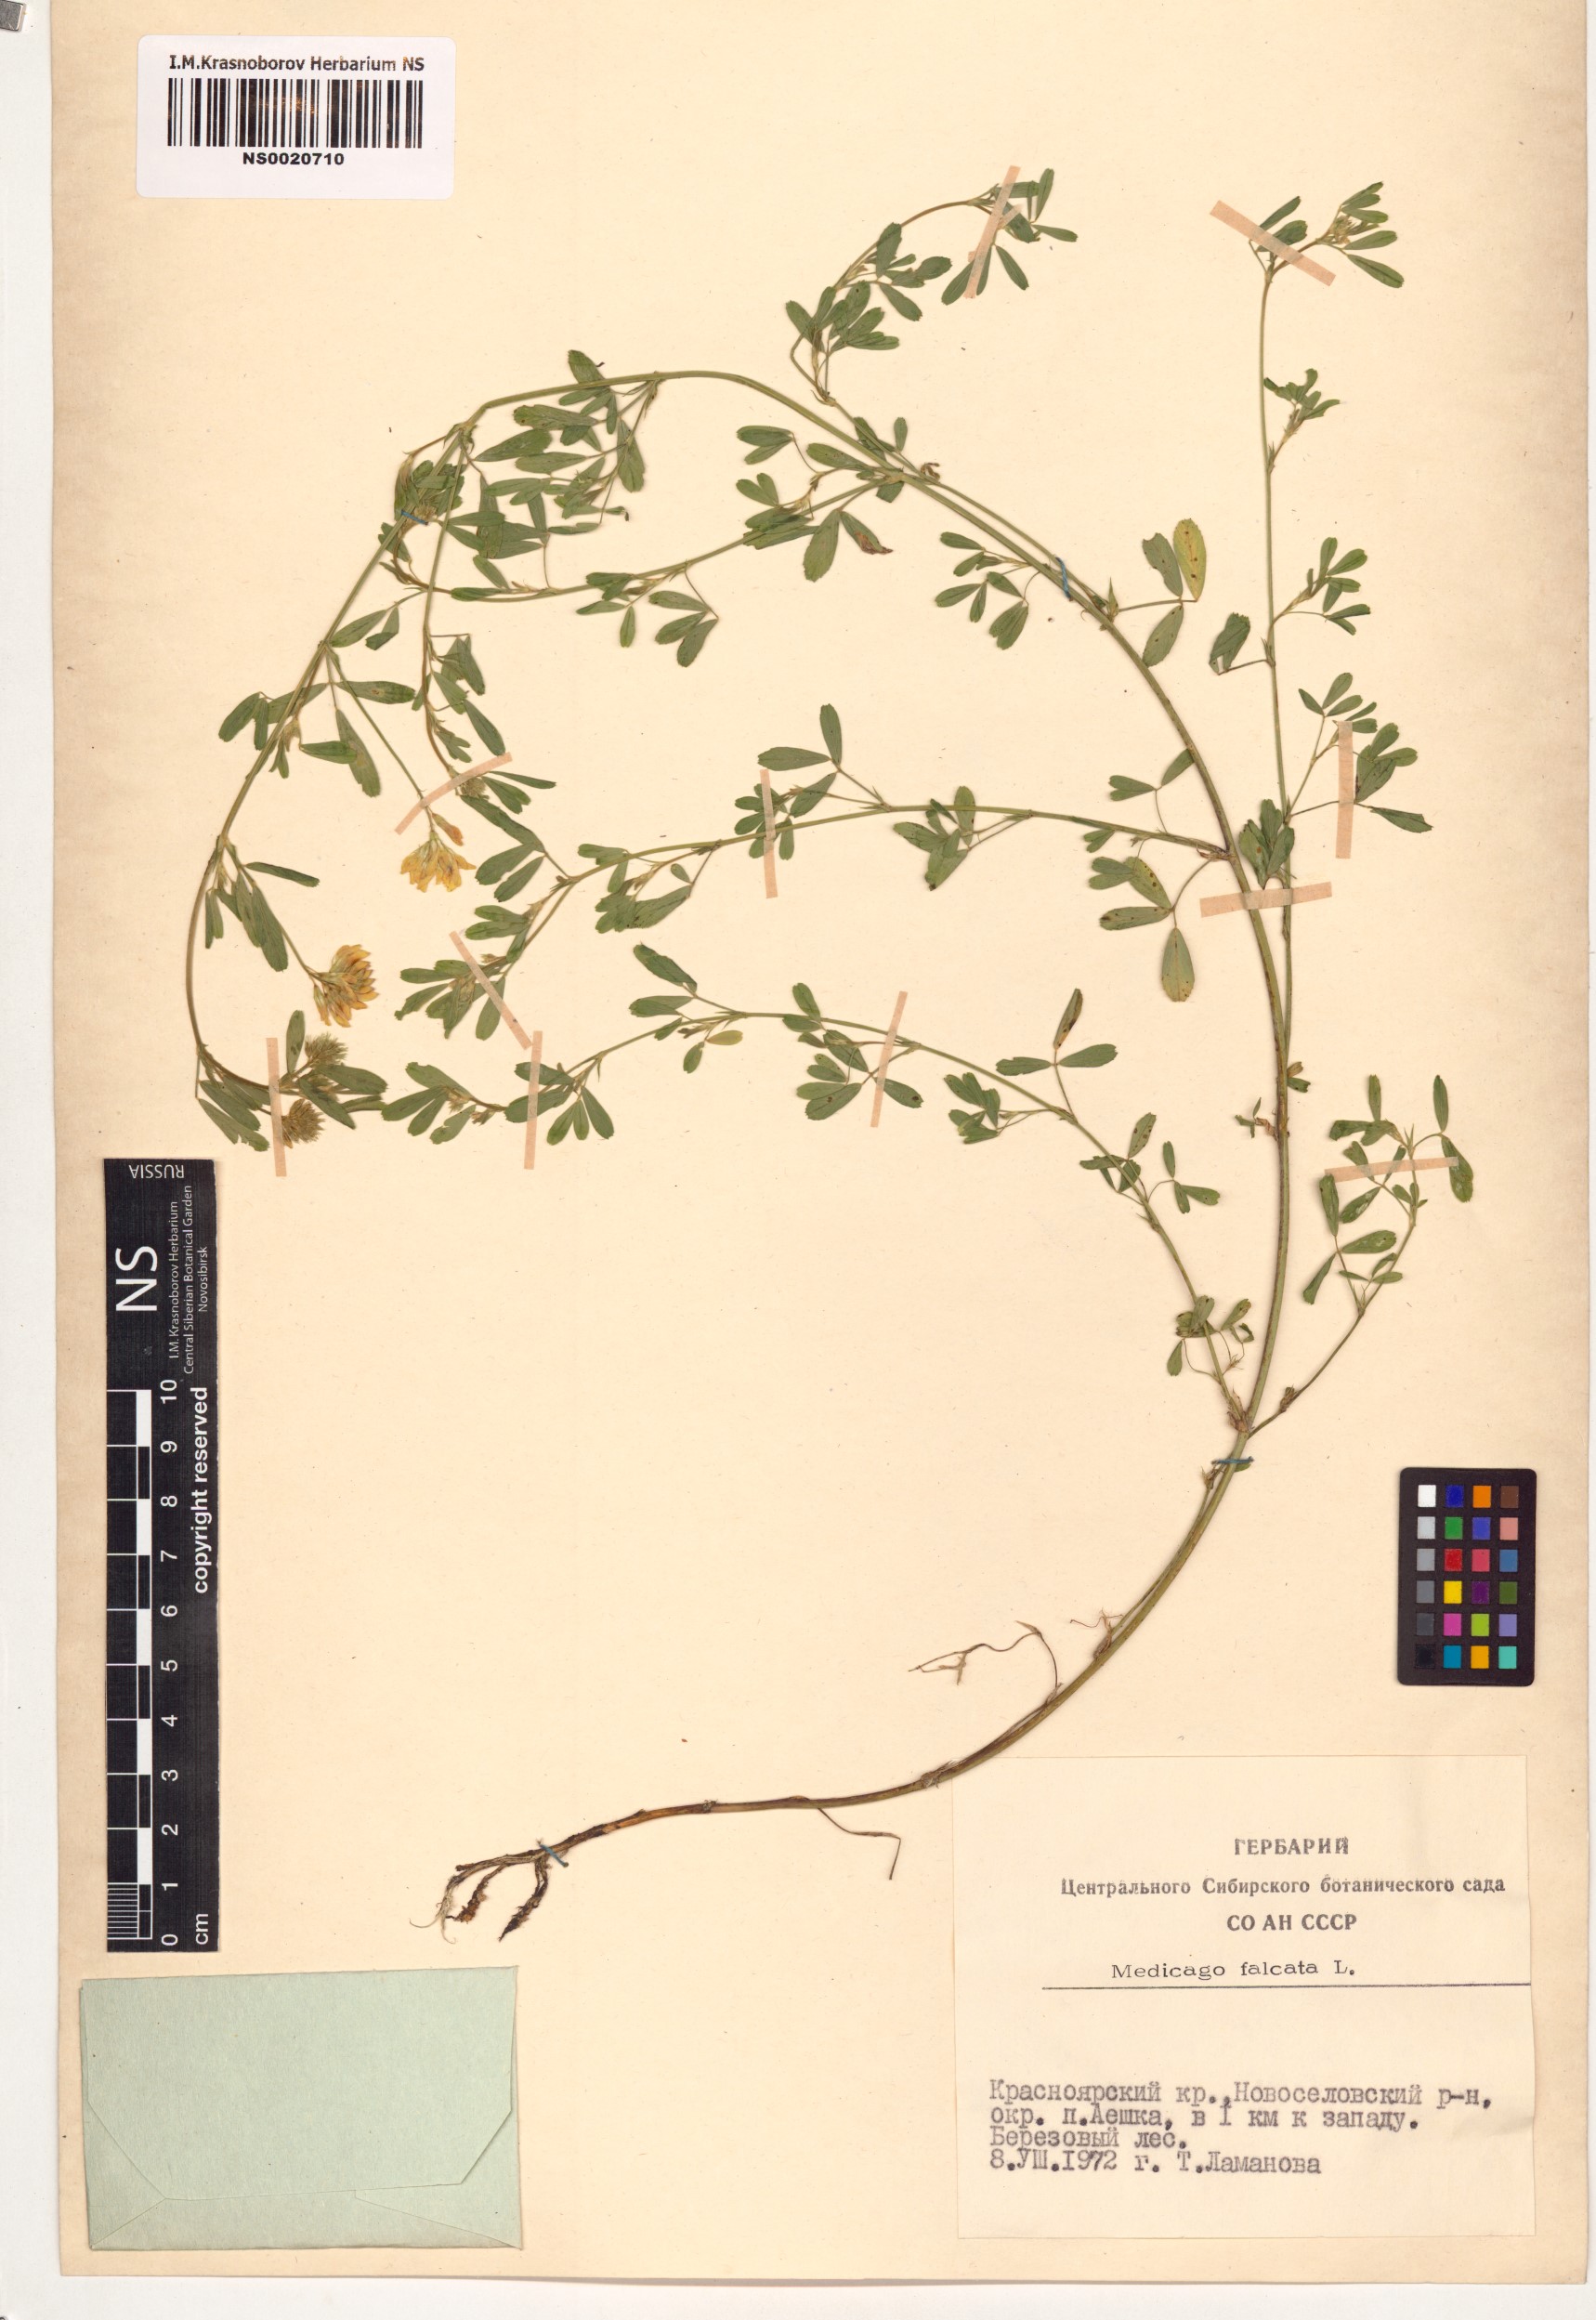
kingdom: Plantae
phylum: Tracheophyta
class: Magnoliopsida
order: Fabales
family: Fabaceae
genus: Medicago
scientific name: Medicago falcata
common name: Sickle medick
